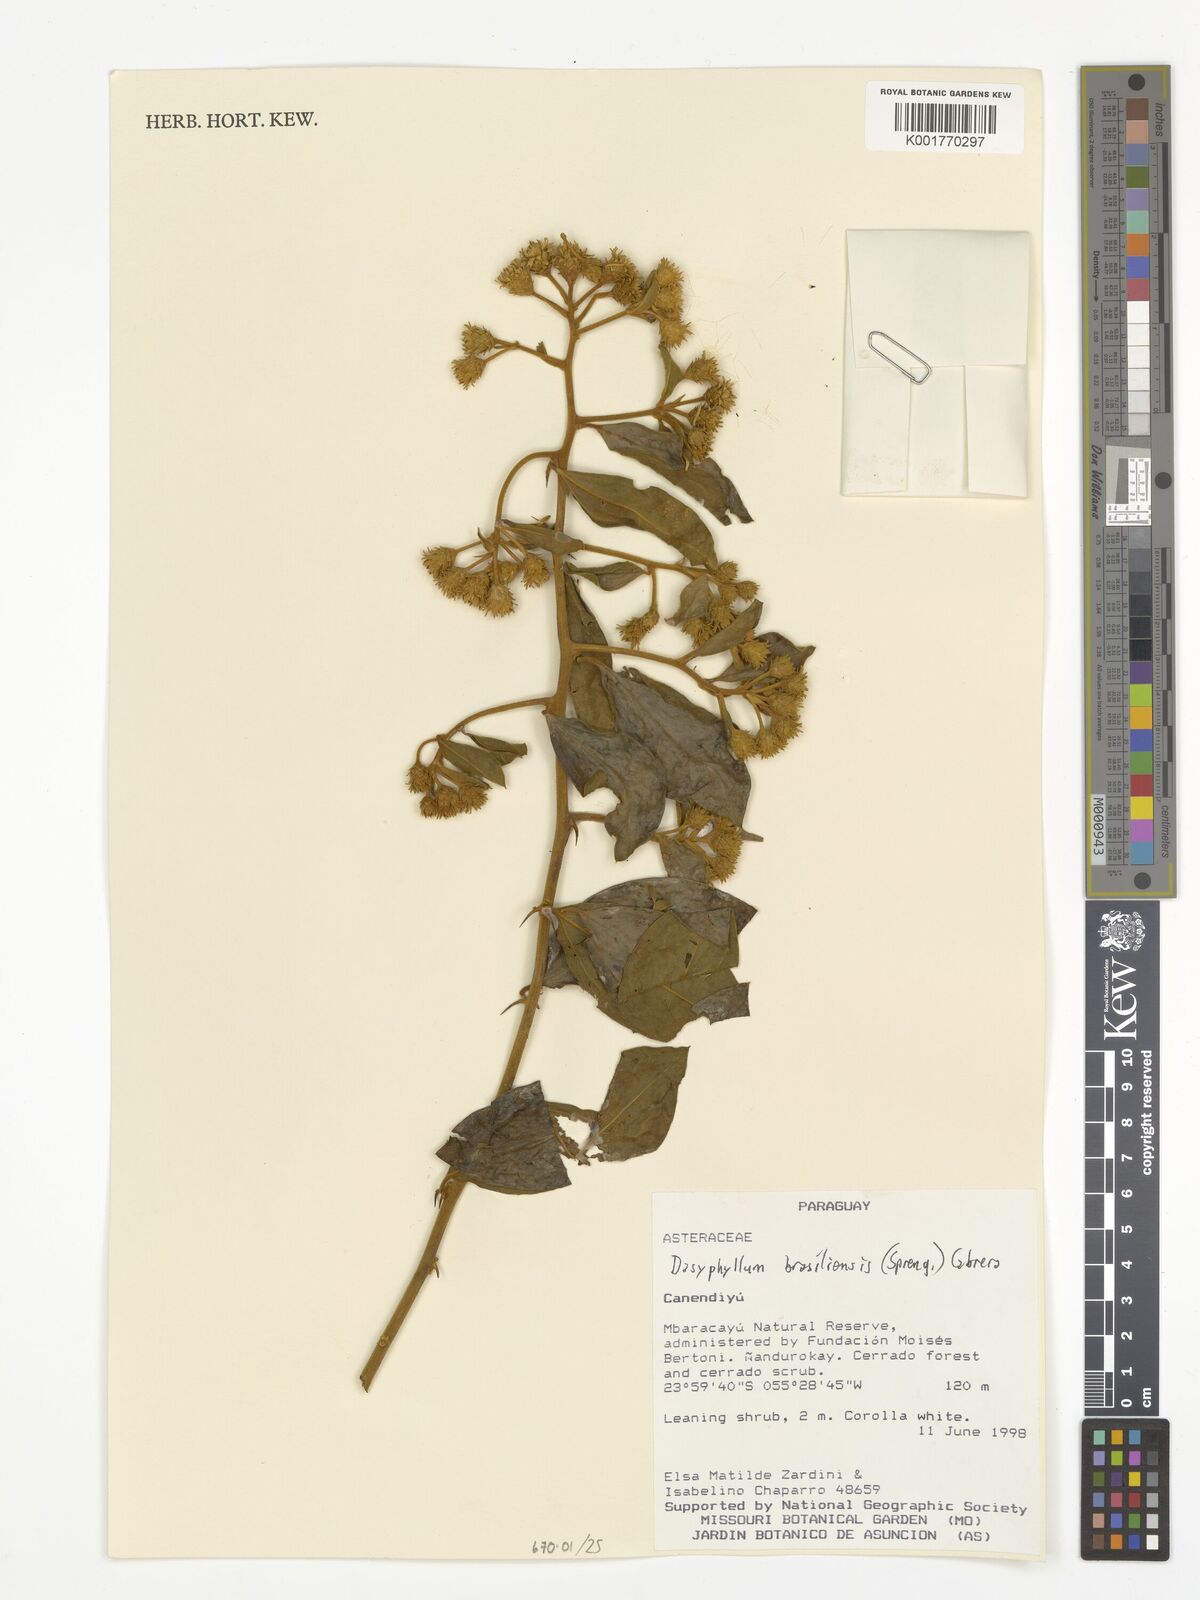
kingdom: Plantae
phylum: Tracheophyta
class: Magnoliopsida
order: Asterales
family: Asteraceae
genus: Dasyphyllum
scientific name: Dasyphyllum brasiliense
